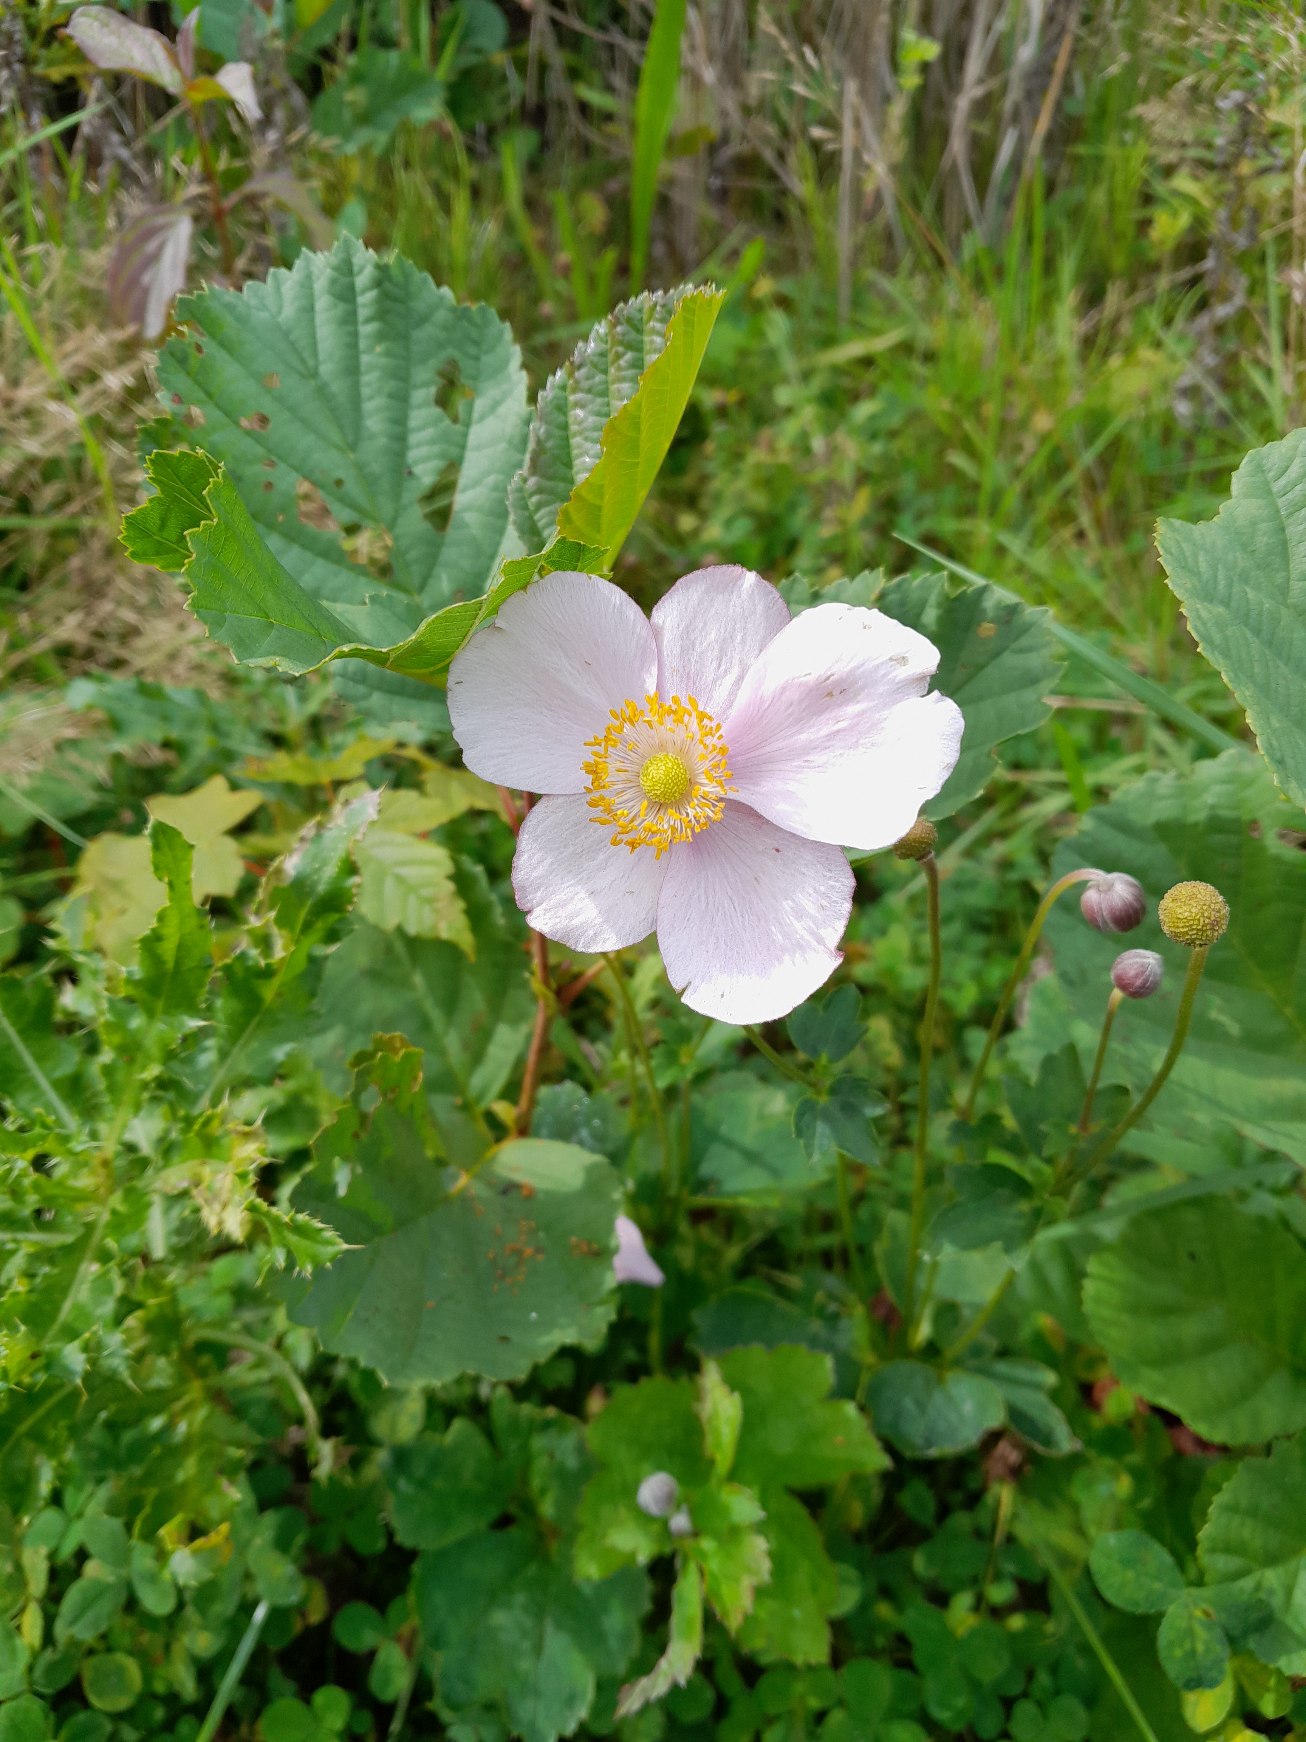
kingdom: Plantae
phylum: Tracheophyta
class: Magnoliopsida
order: Ranunculales
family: Ranunculaceae
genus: Eriocapitella
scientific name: Eriocapitella hupehensis
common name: Høst-anemone
